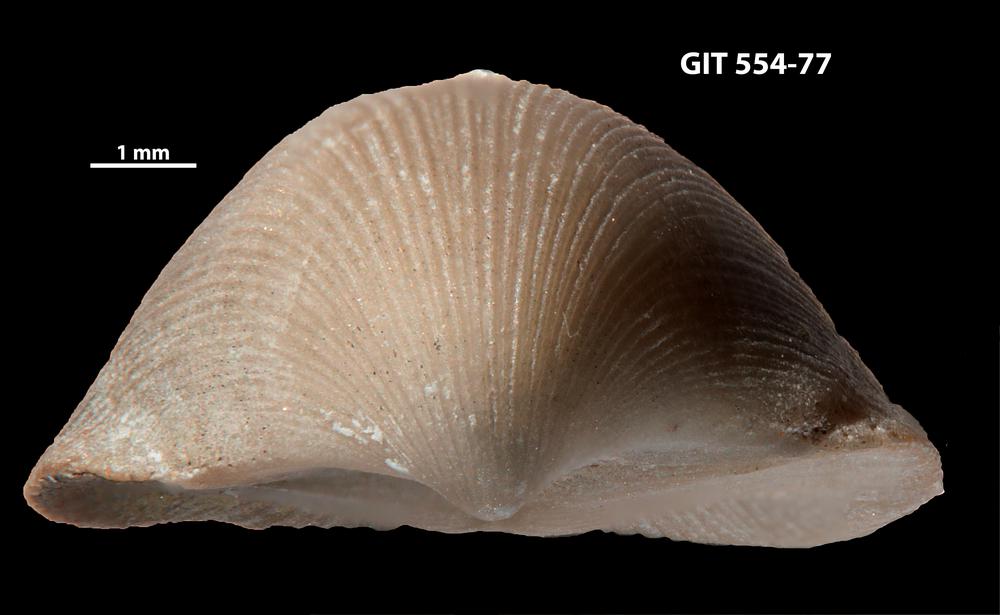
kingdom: Animalia
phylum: Brachiopoda
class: Rhynchonellata
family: Dalmanellidae
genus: Visbyella
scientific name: Visbyella pygmae
